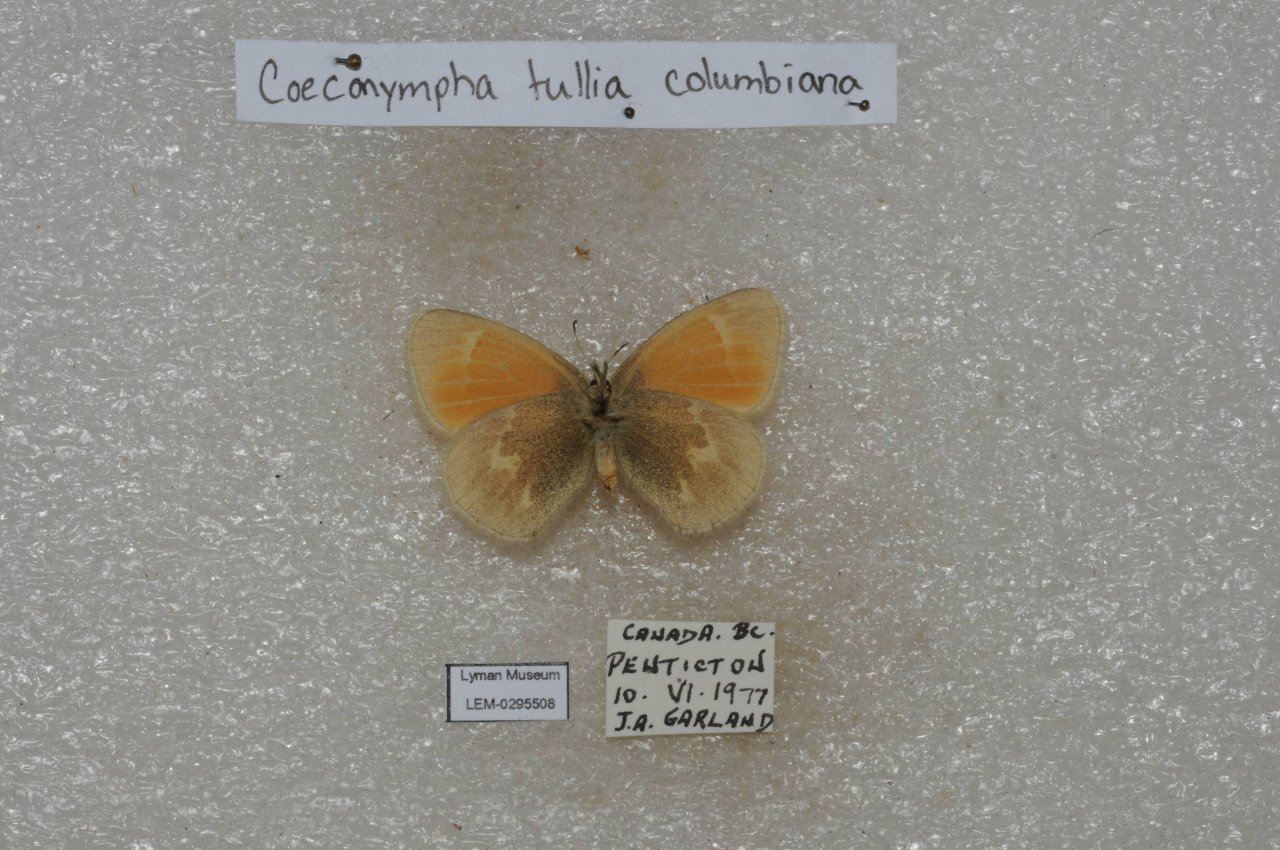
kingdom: Animalia
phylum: Arthropoda
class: Insecta
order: Lepidoptera
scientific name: Lepidoptera
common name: Butterflies
